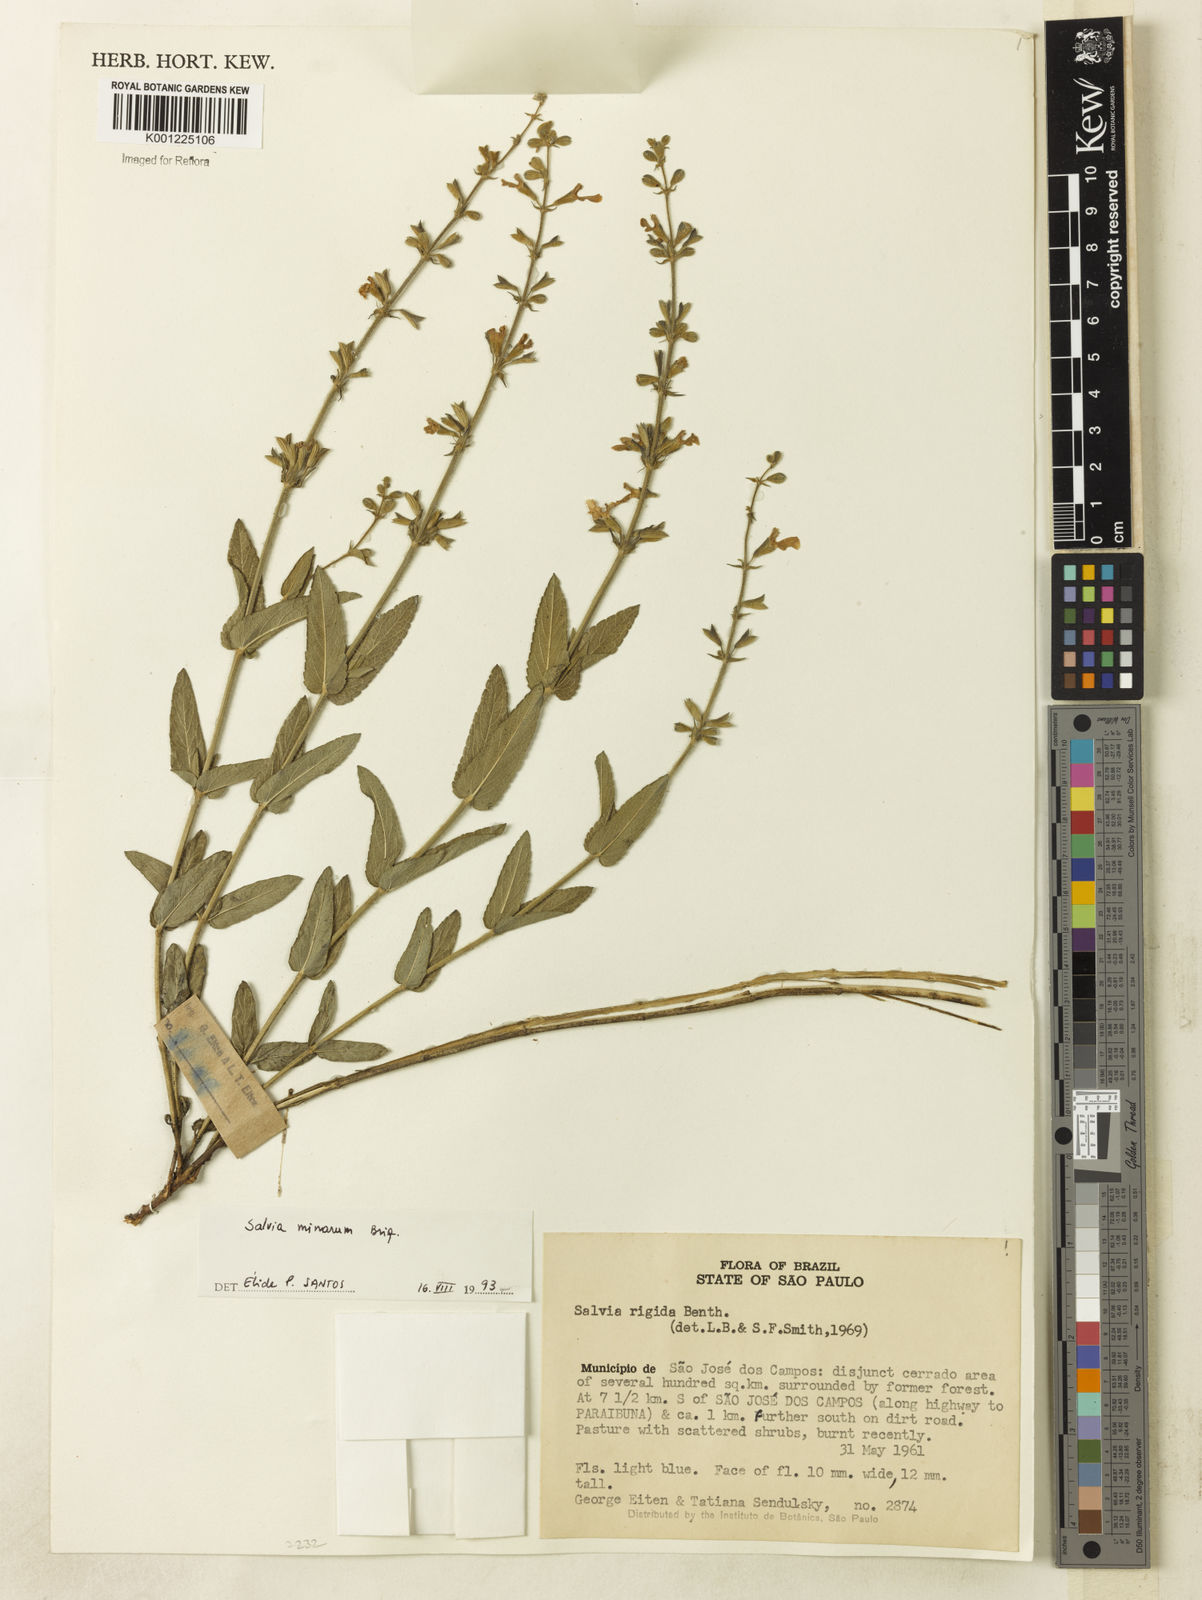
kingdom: Plantae
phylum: Tracheophyta
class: Magnoliopsida
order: Lamiales
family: Lamiaceae
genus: Salvia
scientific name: Salvia minarum
